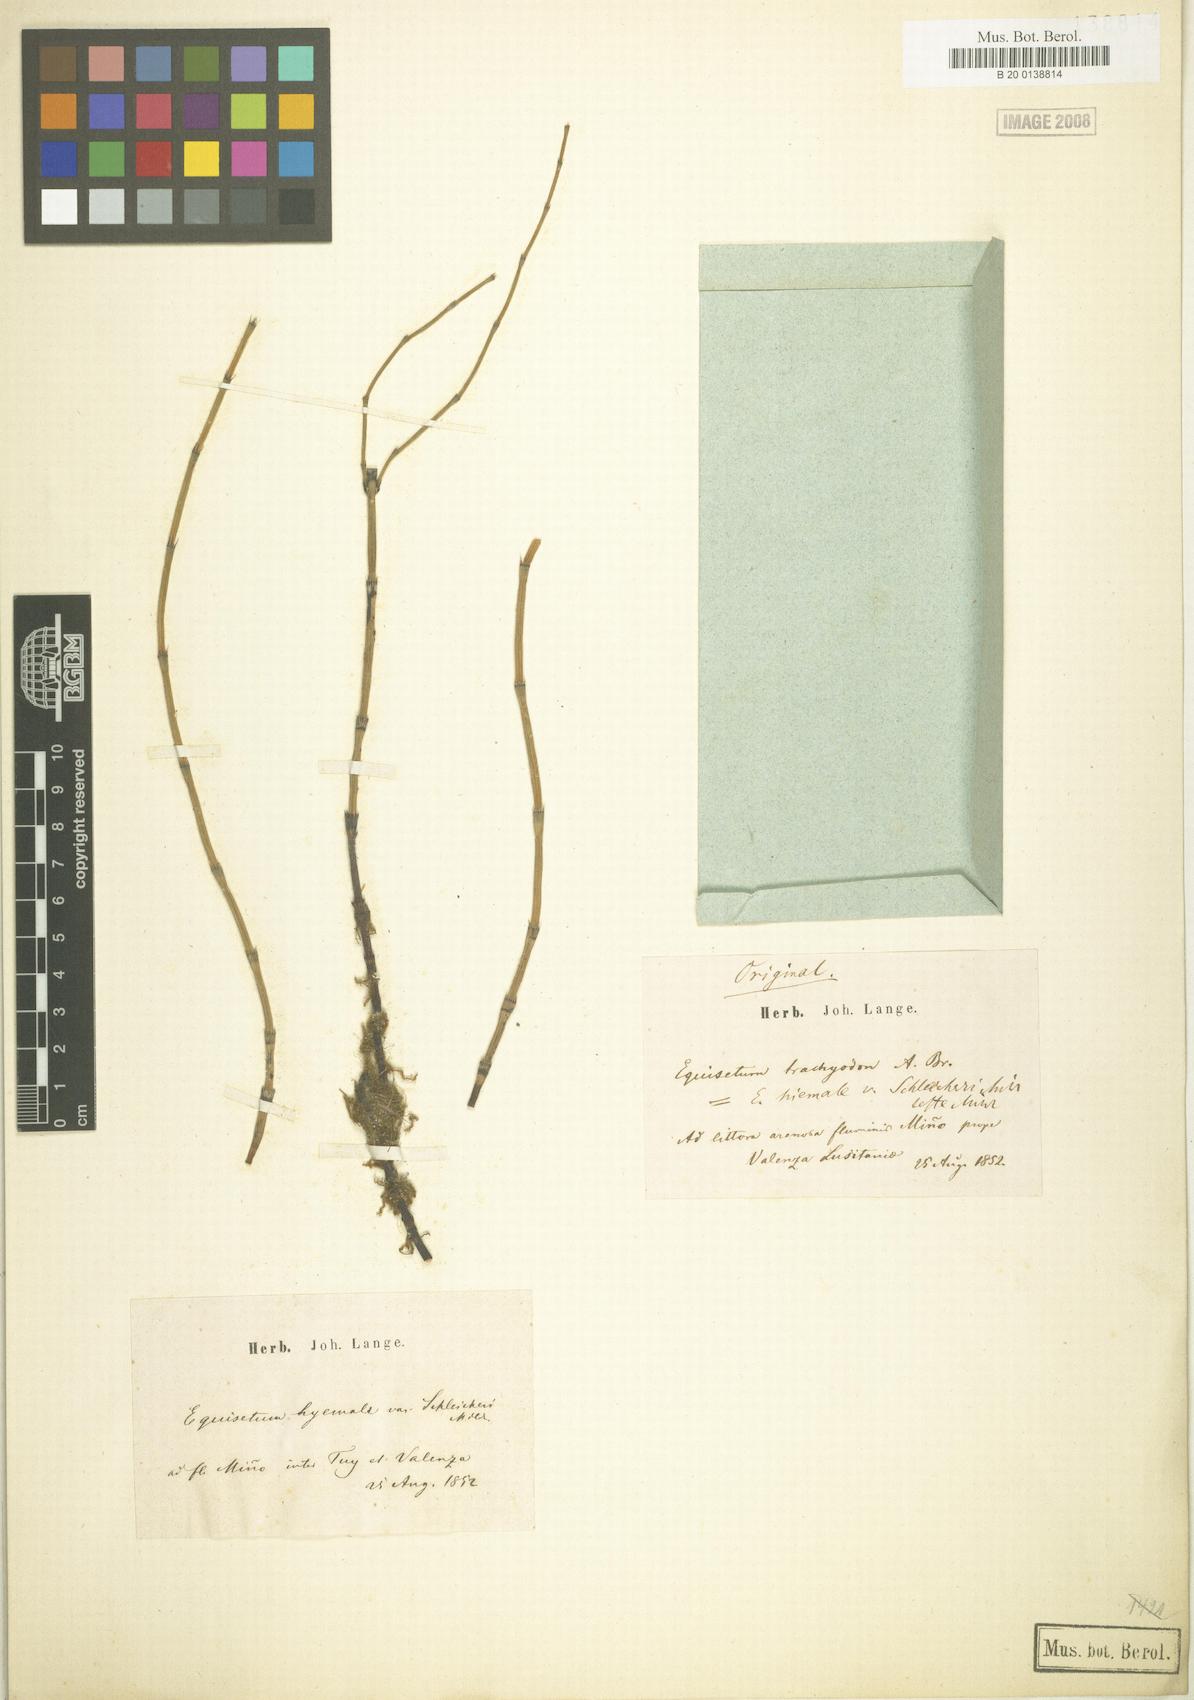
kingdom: Plantae
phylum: Tracheophyta
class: Polypodiopsida
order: Equisetales
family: Equisetaceae
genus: Equisetum
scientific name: Equisetum moorei
